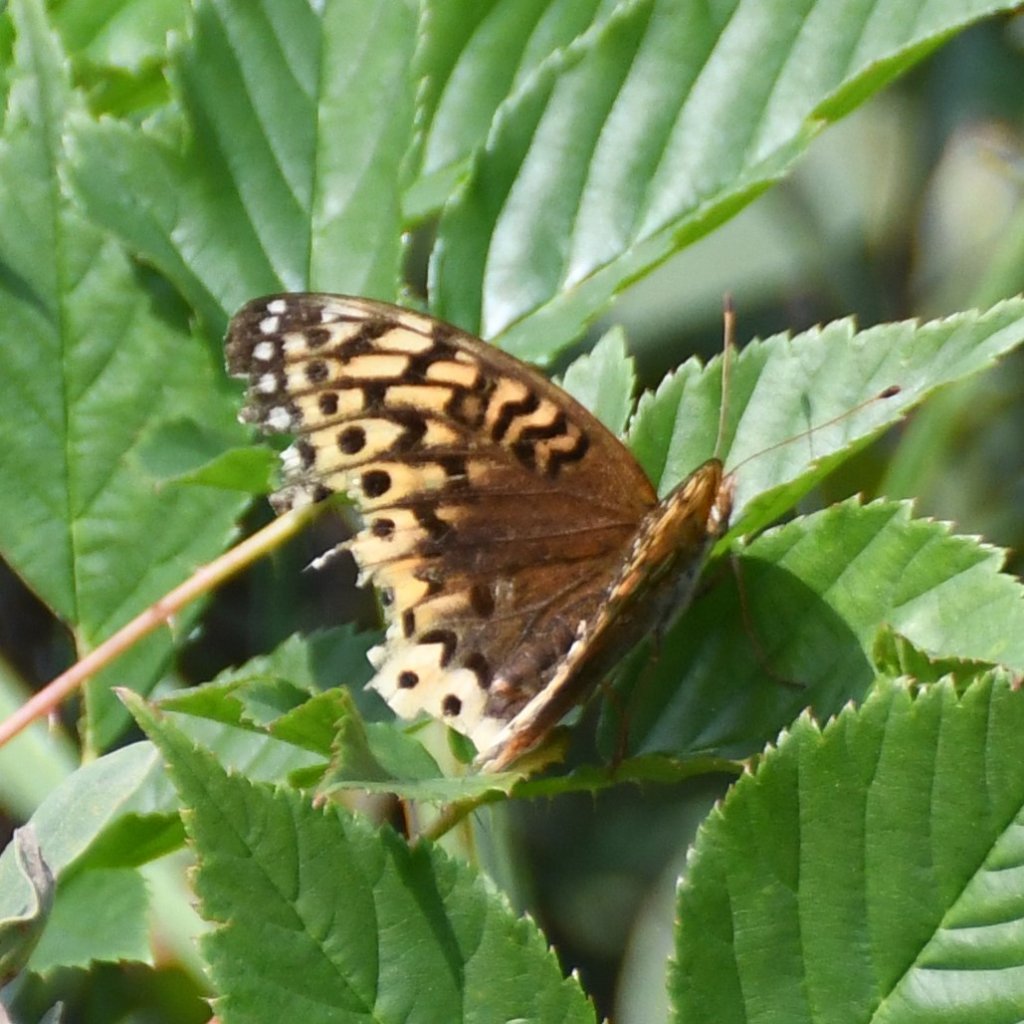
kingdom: Animalia
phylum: Arthropoda
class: Insecta
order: Lepidoptera
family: Nymphalidae
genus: Speyeria
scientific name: Speyeria cybele
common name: Great Spangled Fritillary
